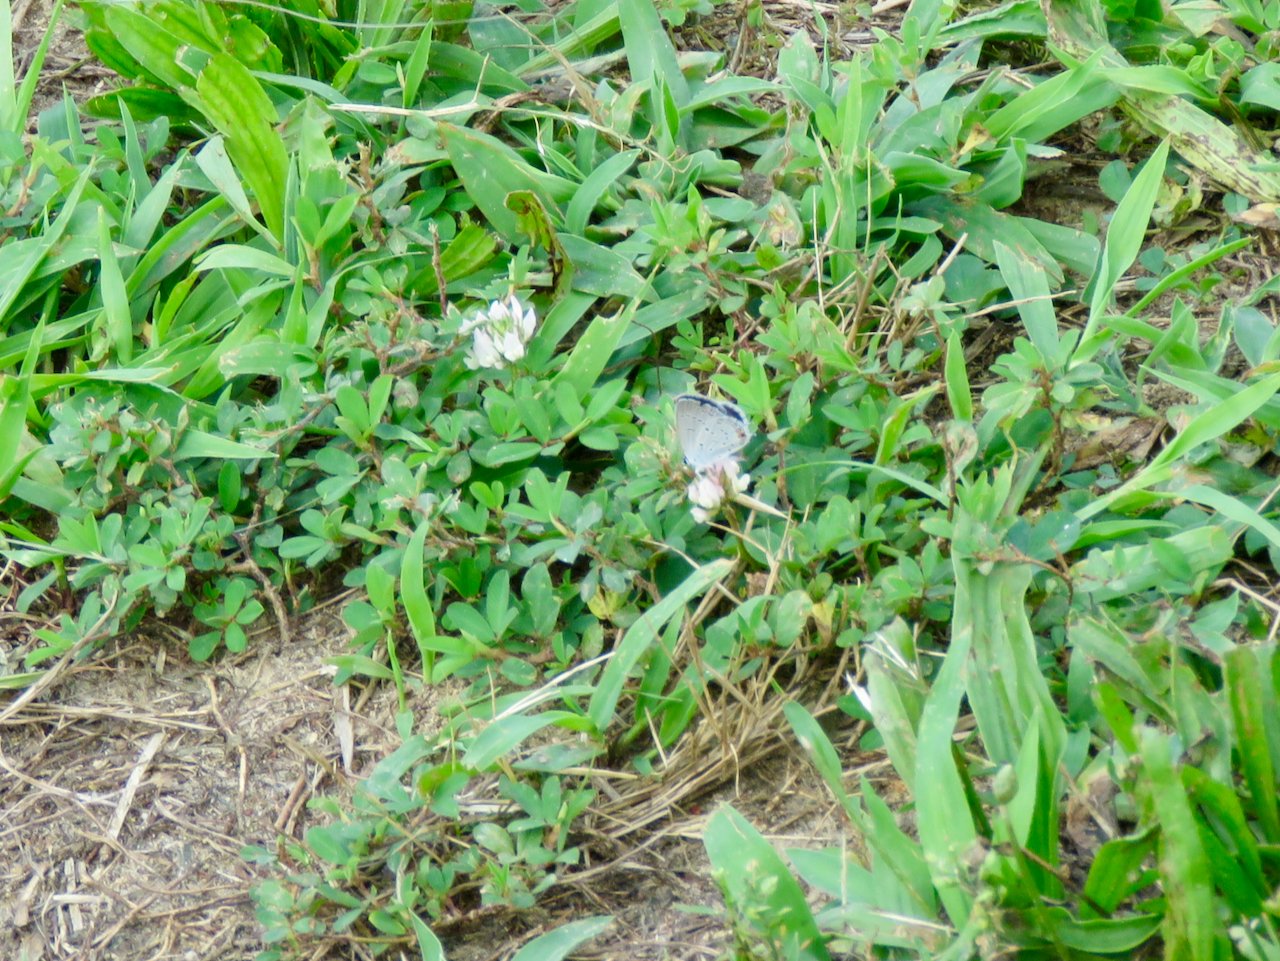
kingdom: Animalia
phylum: Arthropoda
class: Insecta
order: Lepidoptera
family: Lycaenidae
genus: Elkalyce
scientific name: Elkalyce comyntas
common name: Eastern Tailed-Blue
